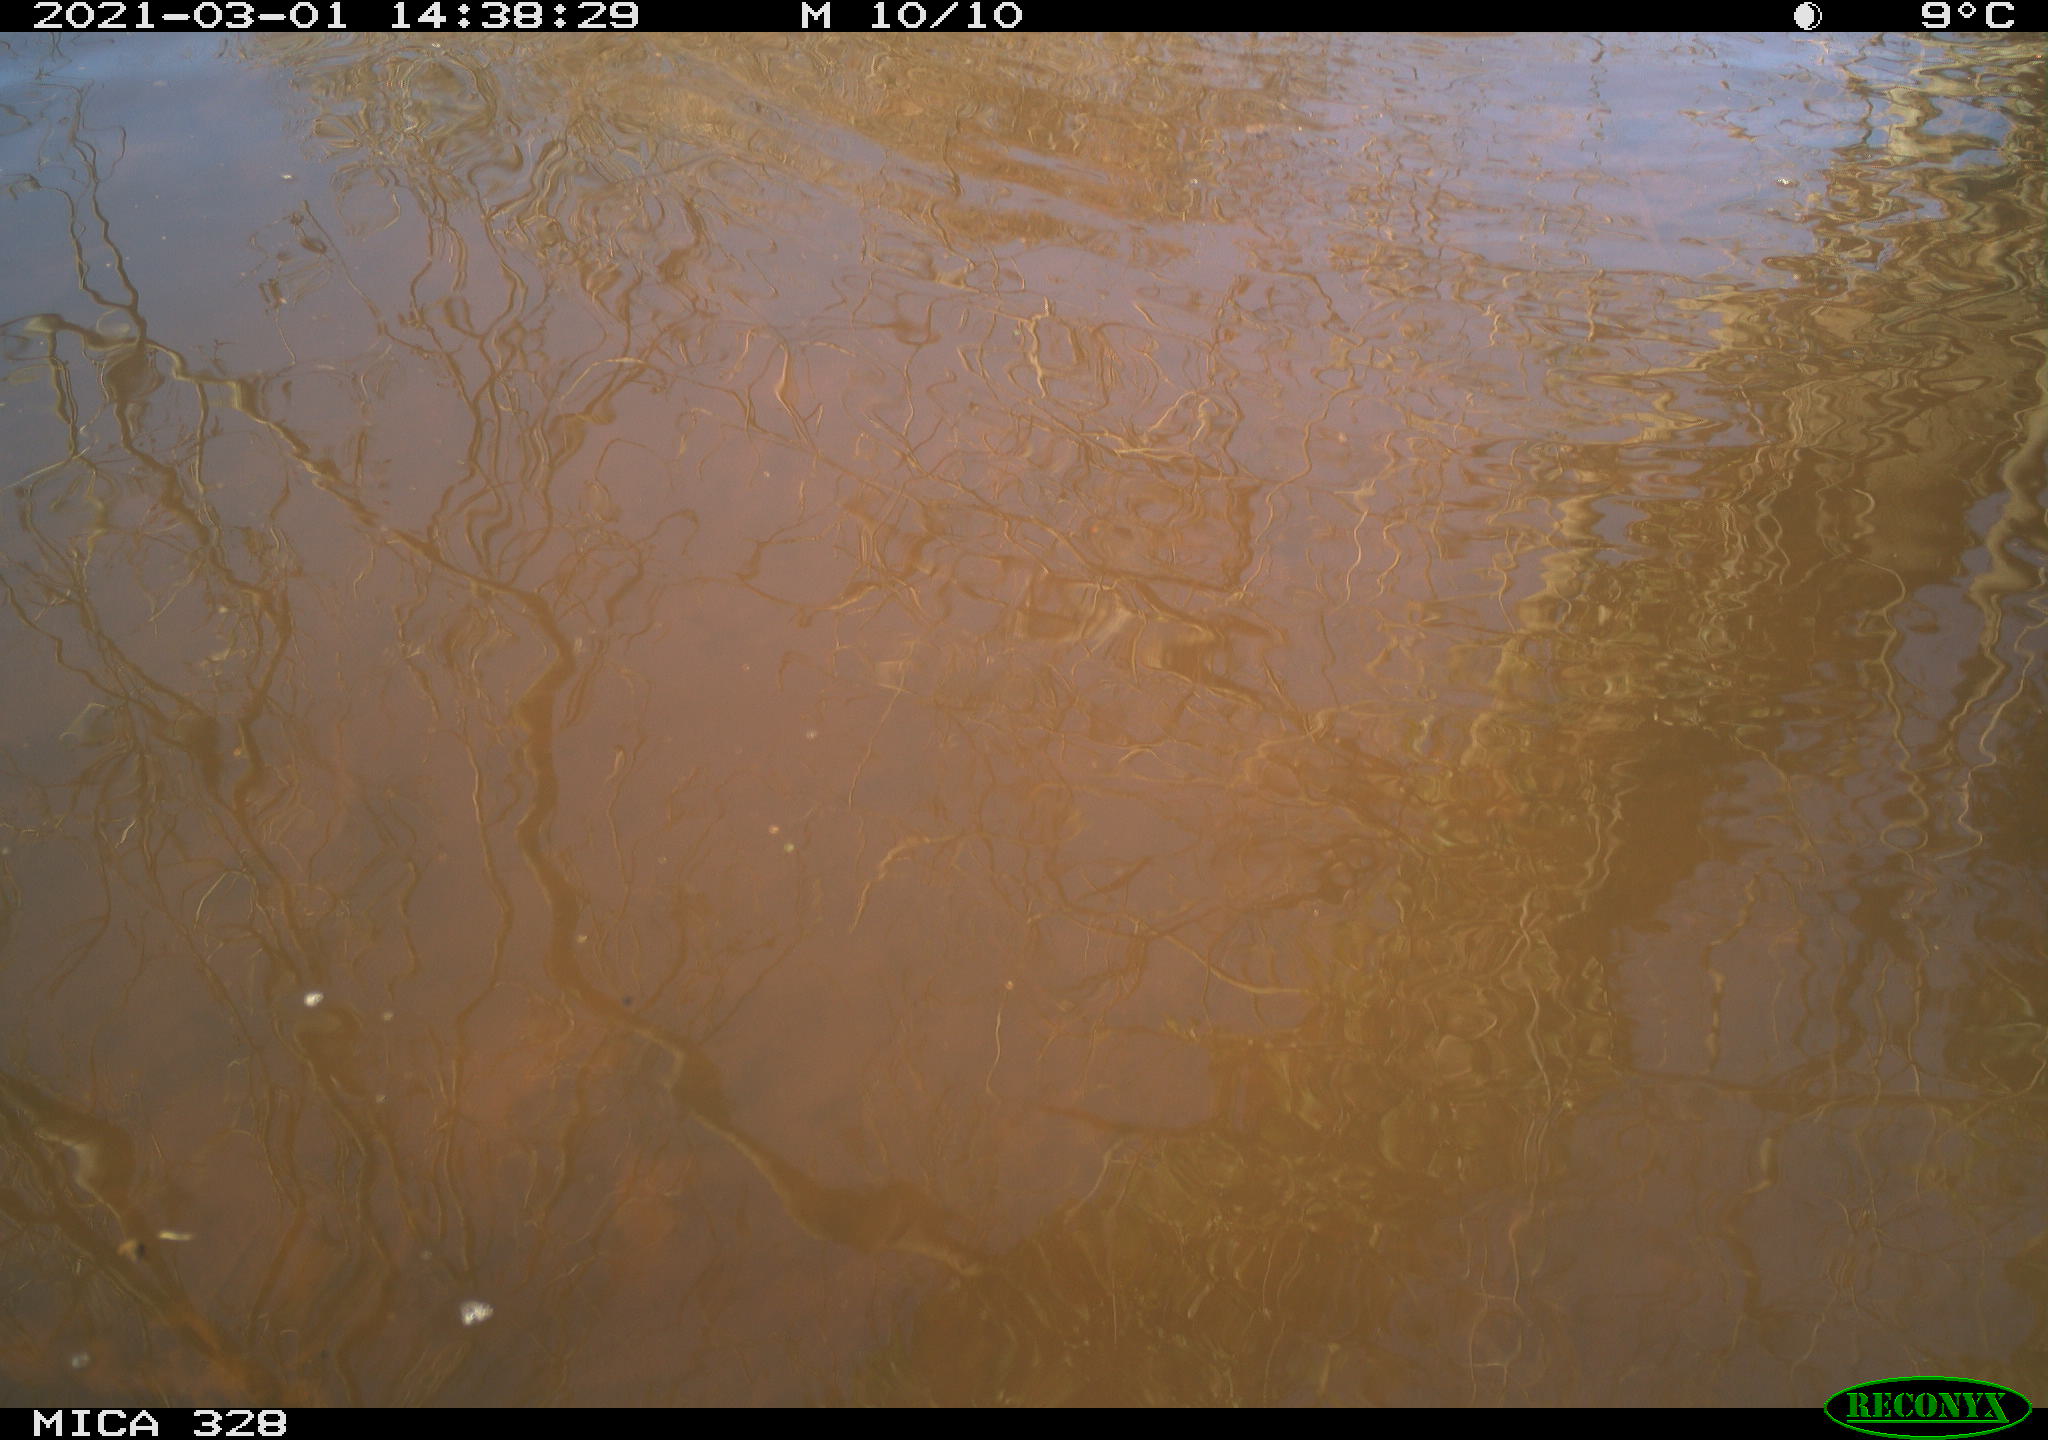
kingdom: Animalia
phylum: Chordata
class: Mammalia
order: Rodentia
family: Cricetidae
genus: Ondatra
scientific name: Ondatra zibethicus
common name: Muskrat
